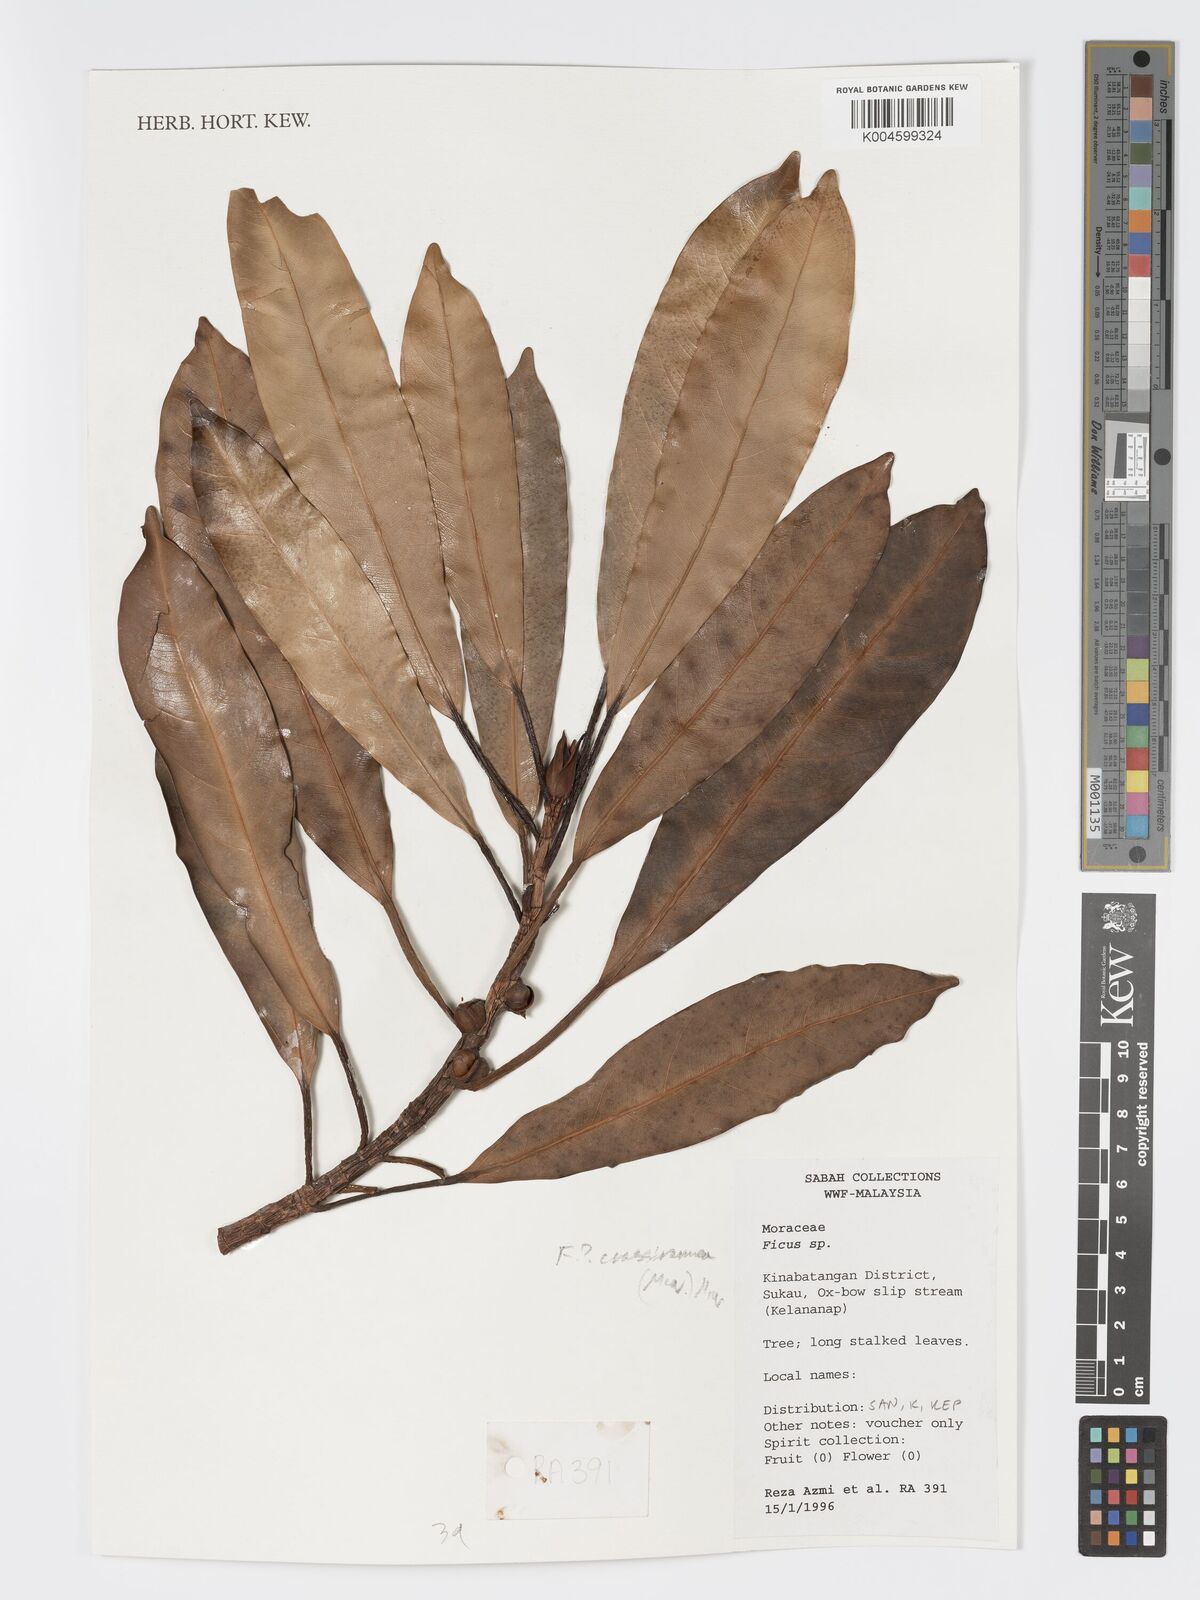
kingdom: Plantae
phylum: Tracheophyta
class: Magnoliopsida
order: Rosales
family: Moraceae
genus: Ficus
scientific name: Ficus crassiramea
